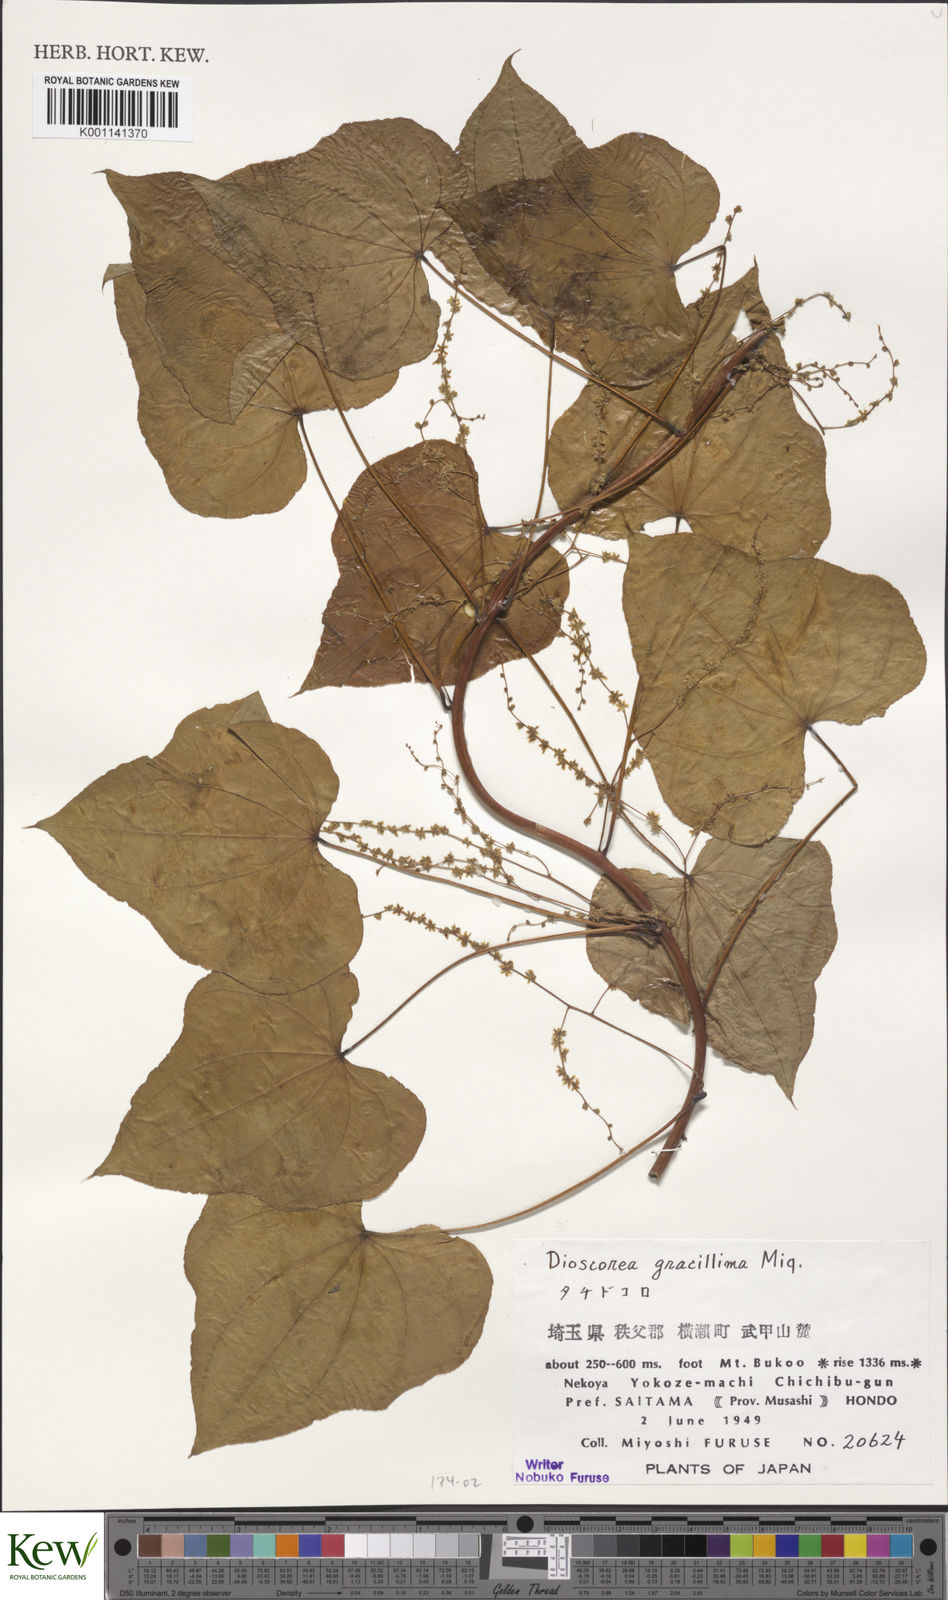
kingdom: Plantae
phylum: Tracheophyta
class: Liliopsida
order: Dioscoreales
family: Dioscoreaceae
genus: Dioscorea
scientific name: Dioscorea gracillima
